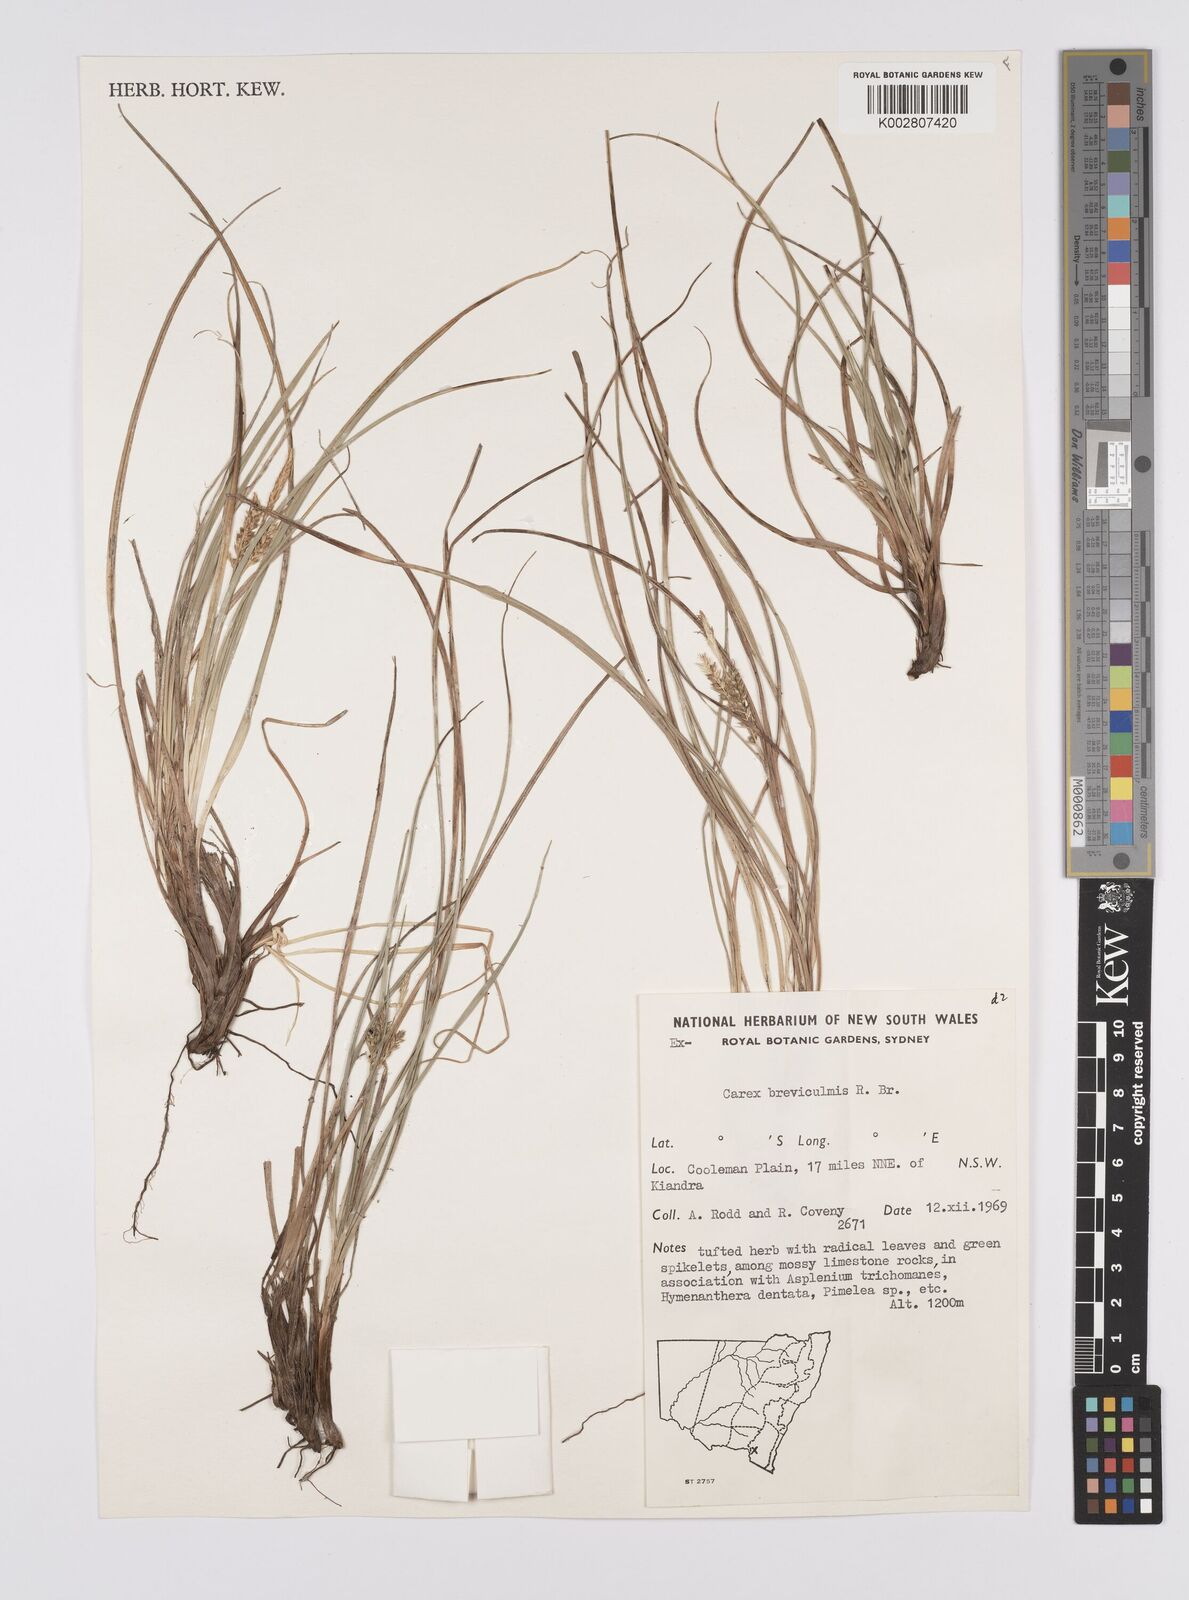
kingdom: Plantae
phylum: Tracheophyta
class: Liliopsida
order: Poales
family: Cyperaceae
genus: Carex
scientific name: Carex breviculmis
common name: Asian shortstem sedge
